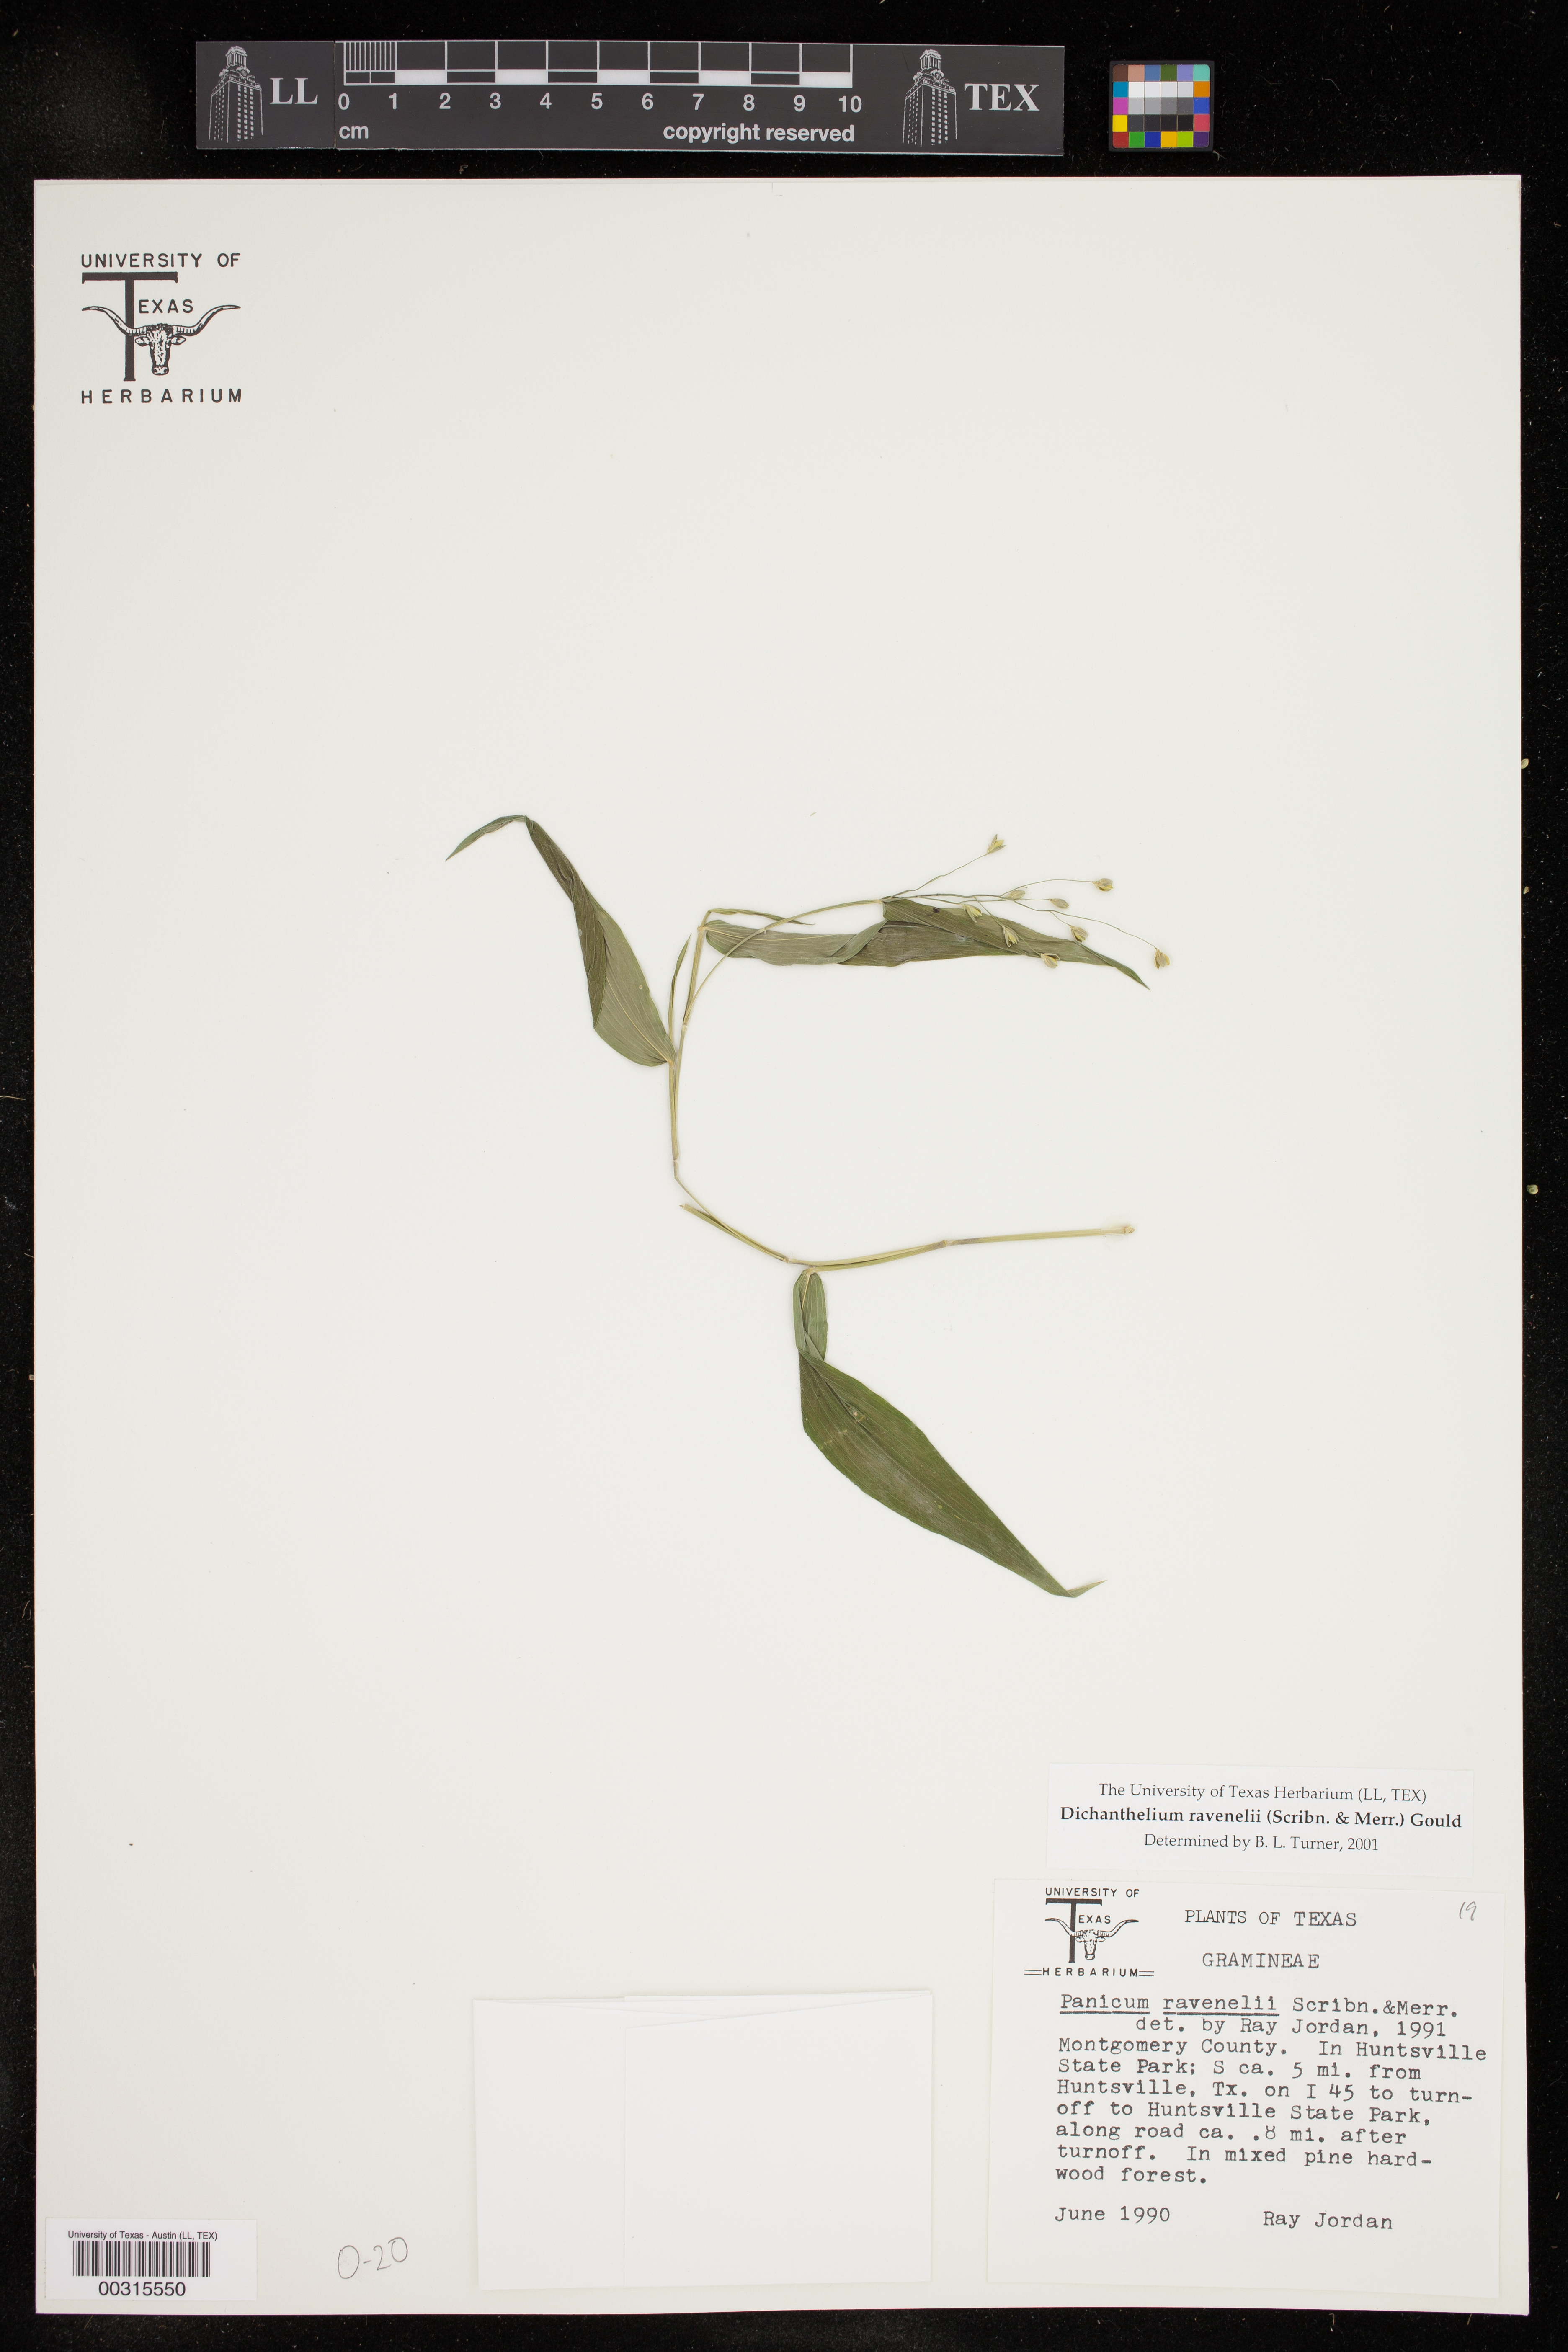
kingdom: Plantae
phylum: Tracheophyta
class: Liliopsida
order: Poales
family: Poaceae
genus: Dichanthelium
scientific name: Dichanthelium ravenelii
